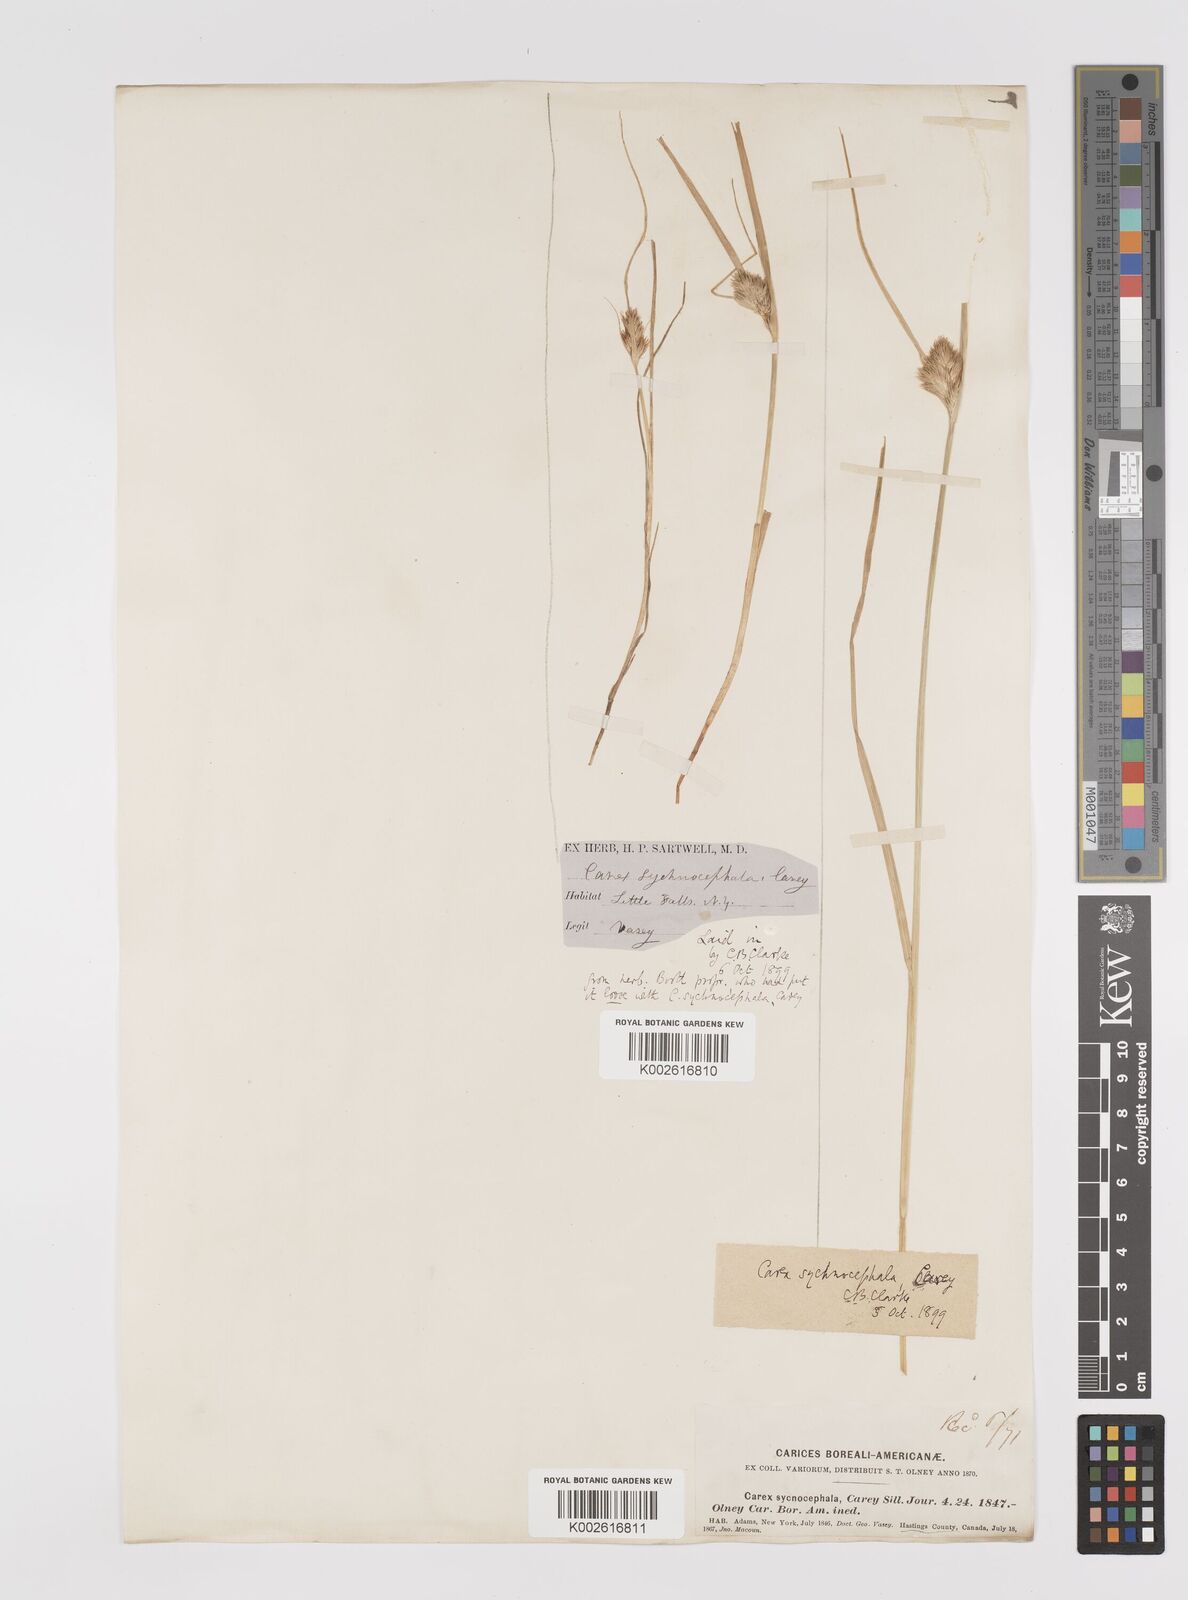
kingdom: Plantae
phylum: Tracheophyta
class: Liliopsida
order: Poales
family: Cyperaceae
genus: Carex
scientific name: Carex sychnocephala
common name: Dense long-beaked sedge
